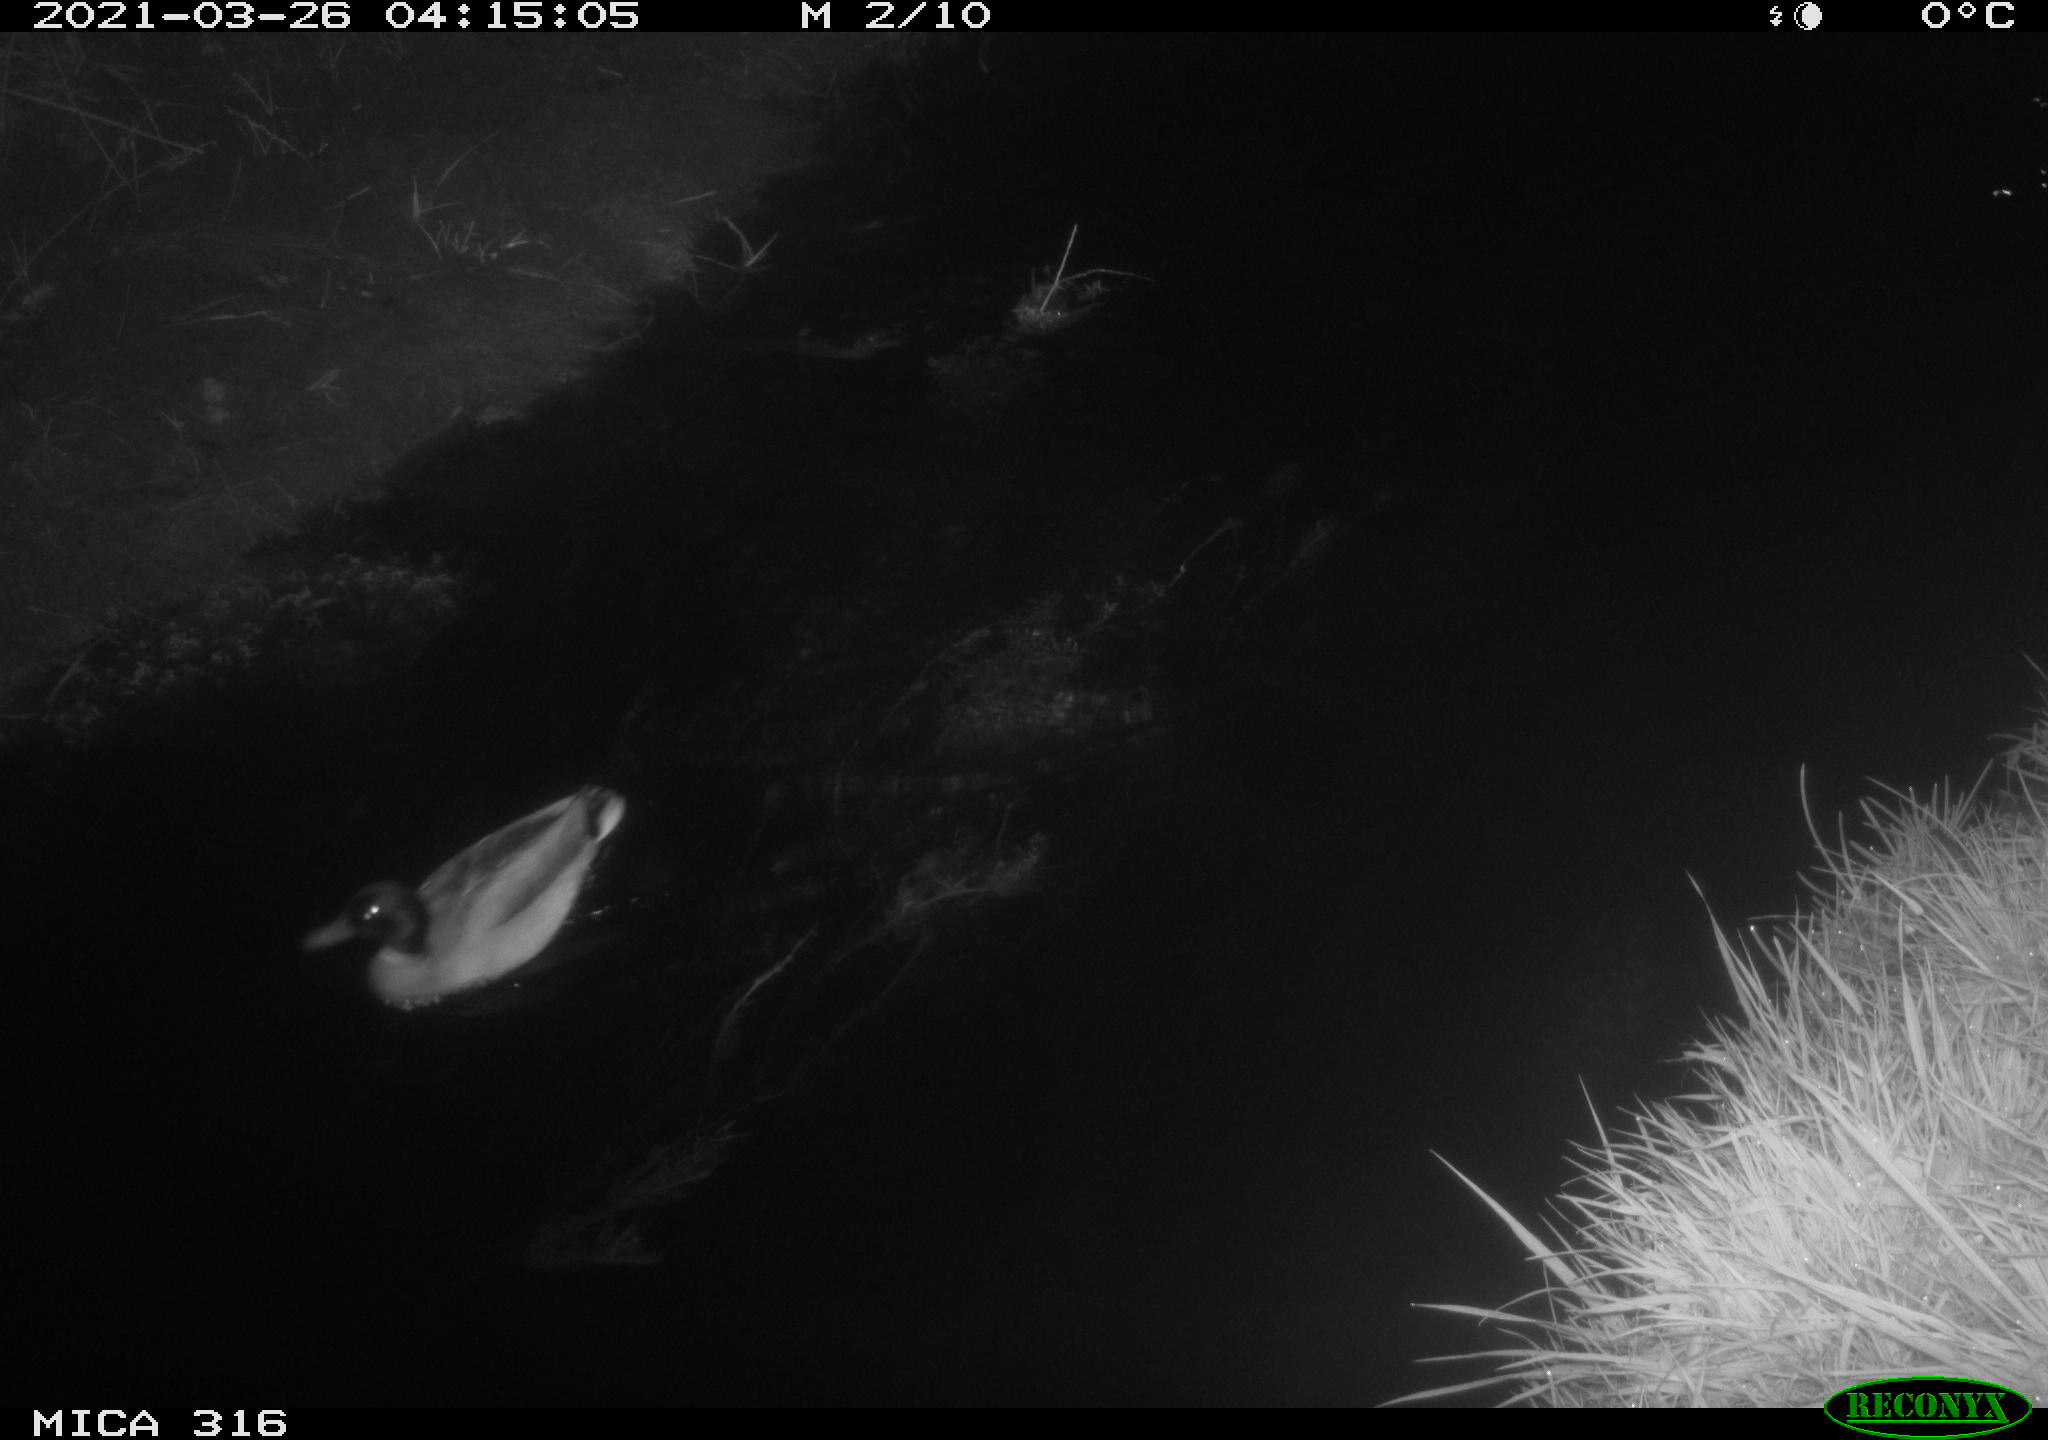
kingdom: Animalia
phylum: Chordata
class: Aves
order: Anseriformes
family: Anatidae
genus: Anas
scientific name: Anas platyrhynchos
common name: Mallard
